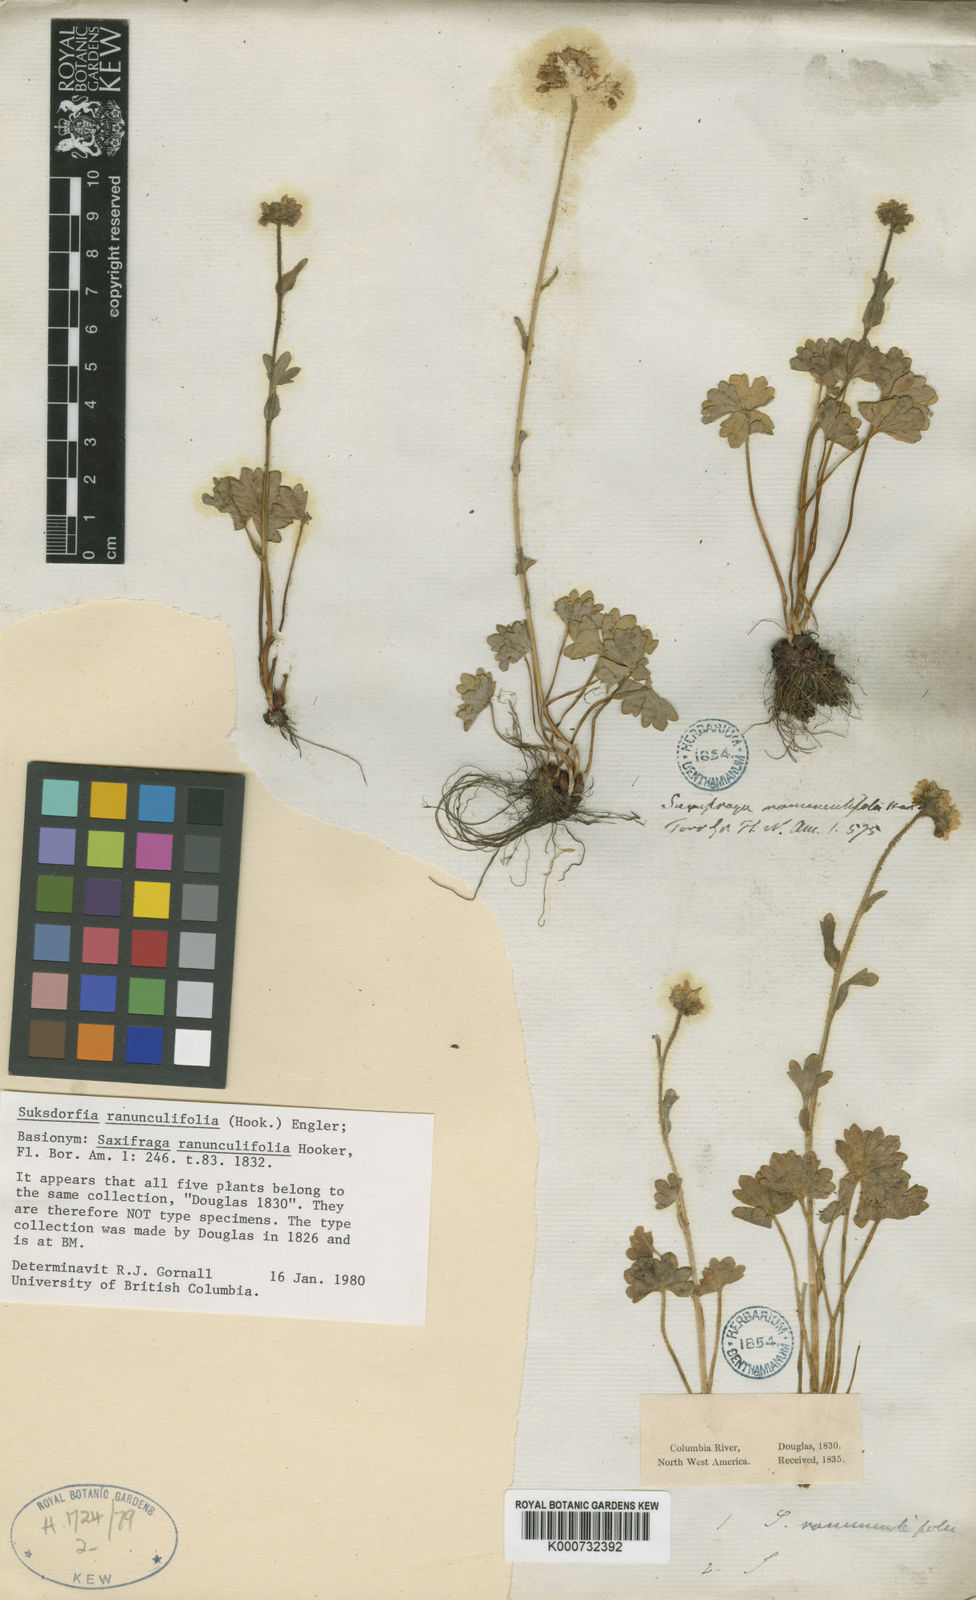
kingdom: Plantae
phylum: Tracheophyta
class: Magnoliopsida
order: Saxifragales
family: Saxifragaceae
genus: Hemieva
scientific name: Hemieva ranunculifolia
